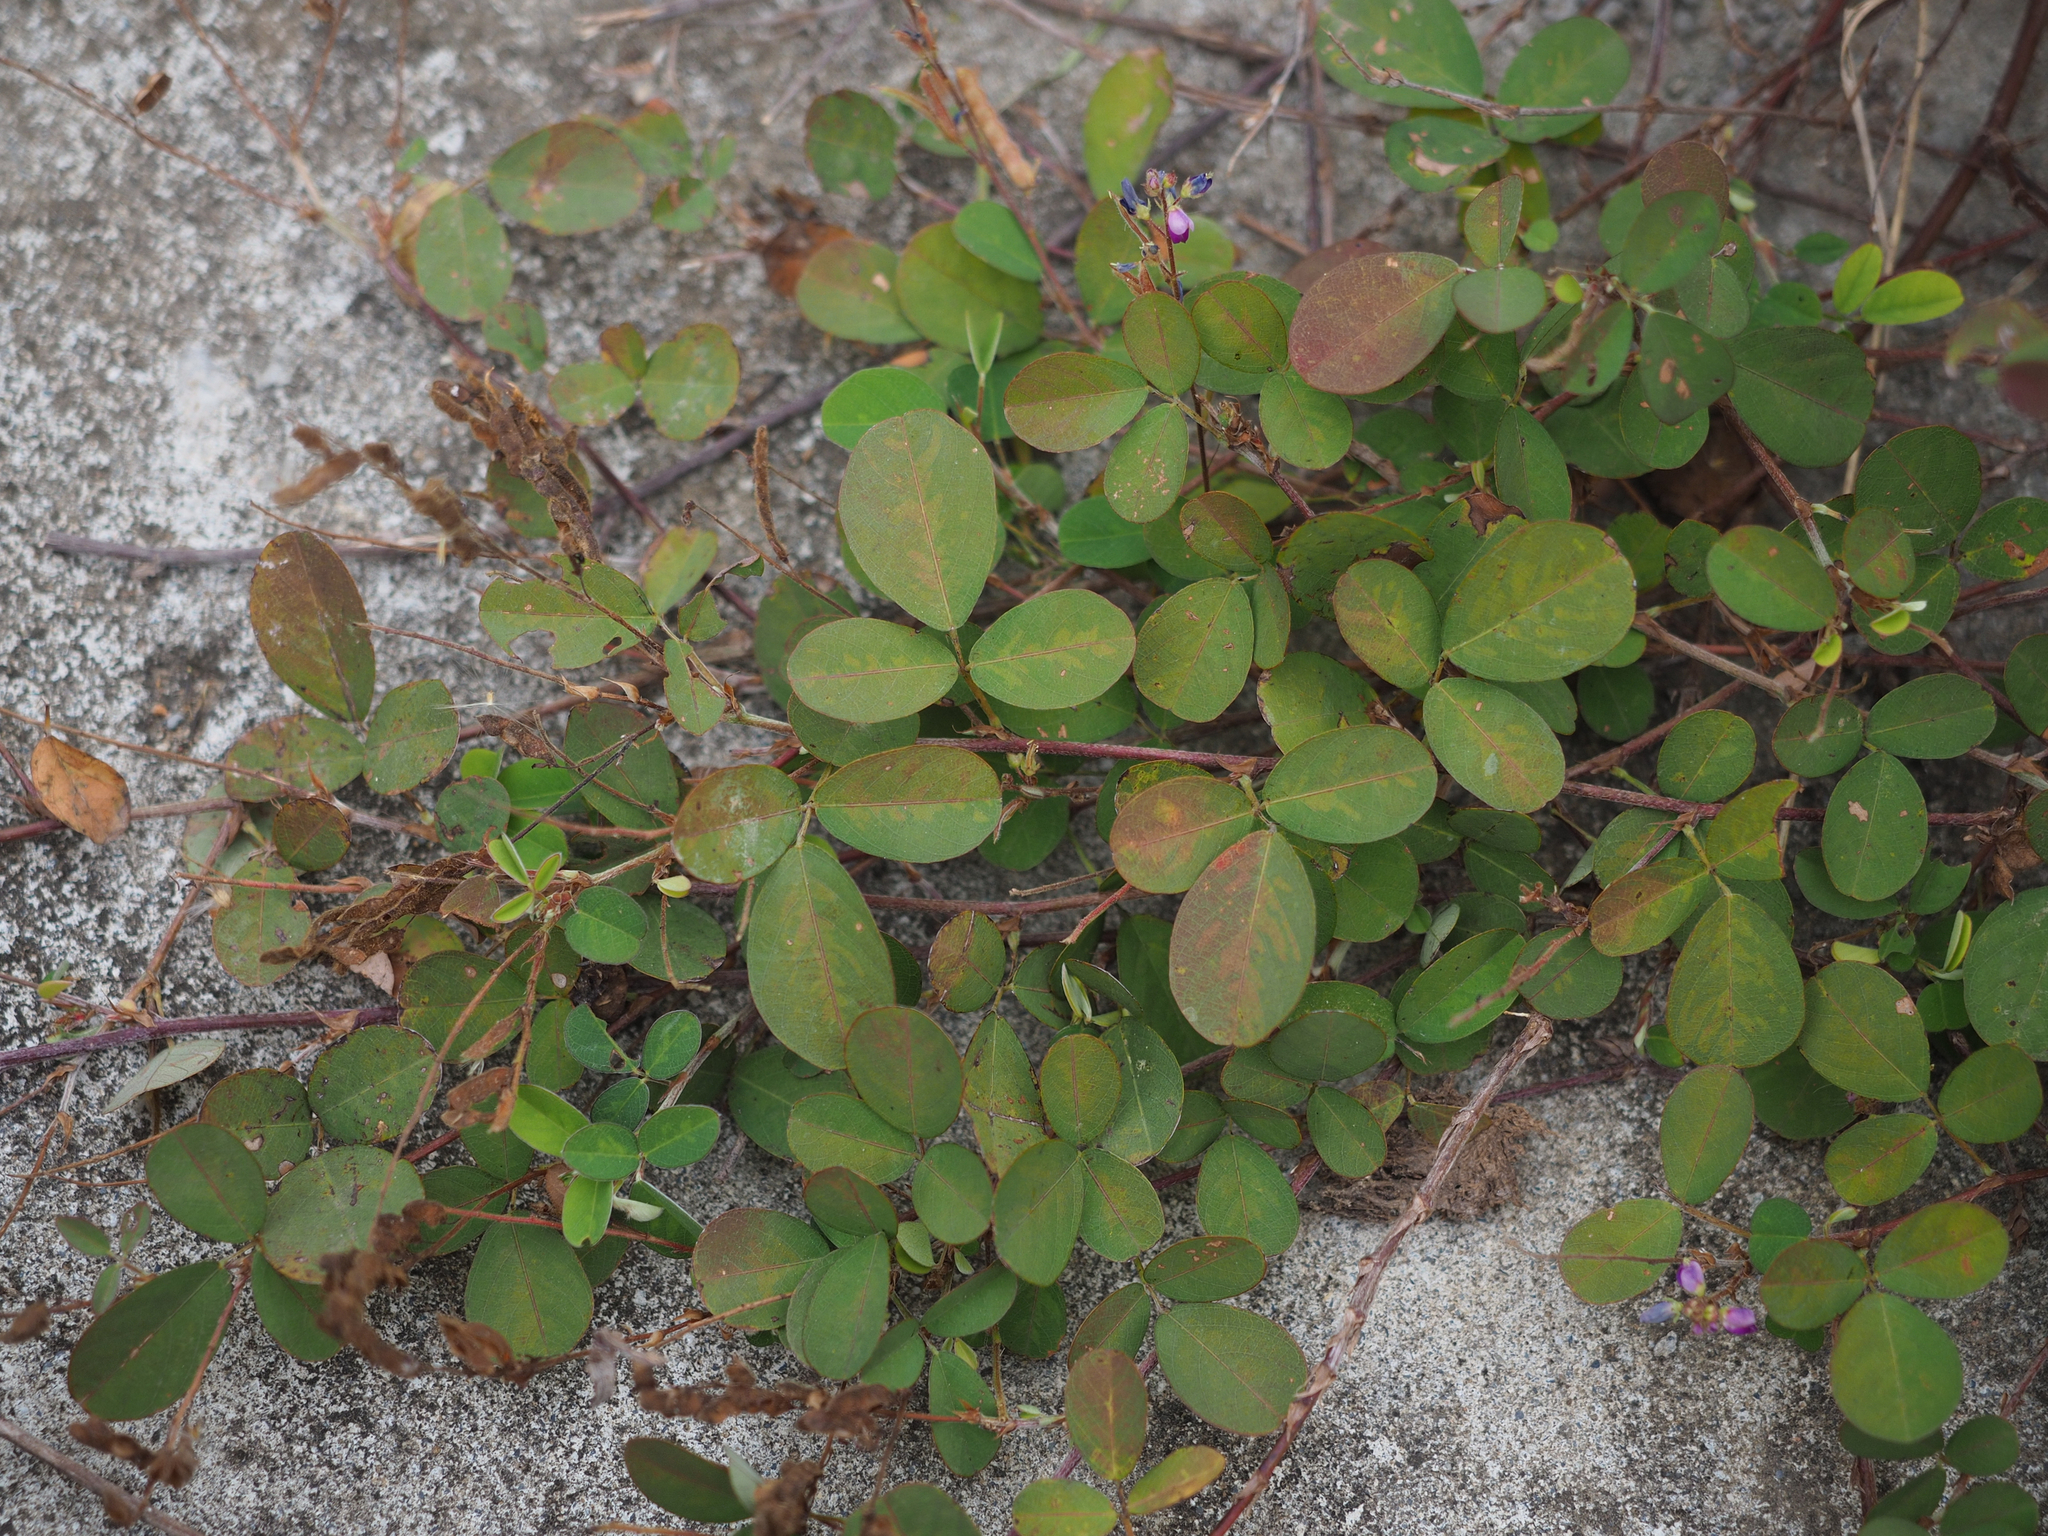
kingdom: Plantae
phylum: Tracheophyta
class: Magnoliopsida
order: Fabales
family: Fabaceae
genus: Grona
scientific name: Grona heterocarpos
